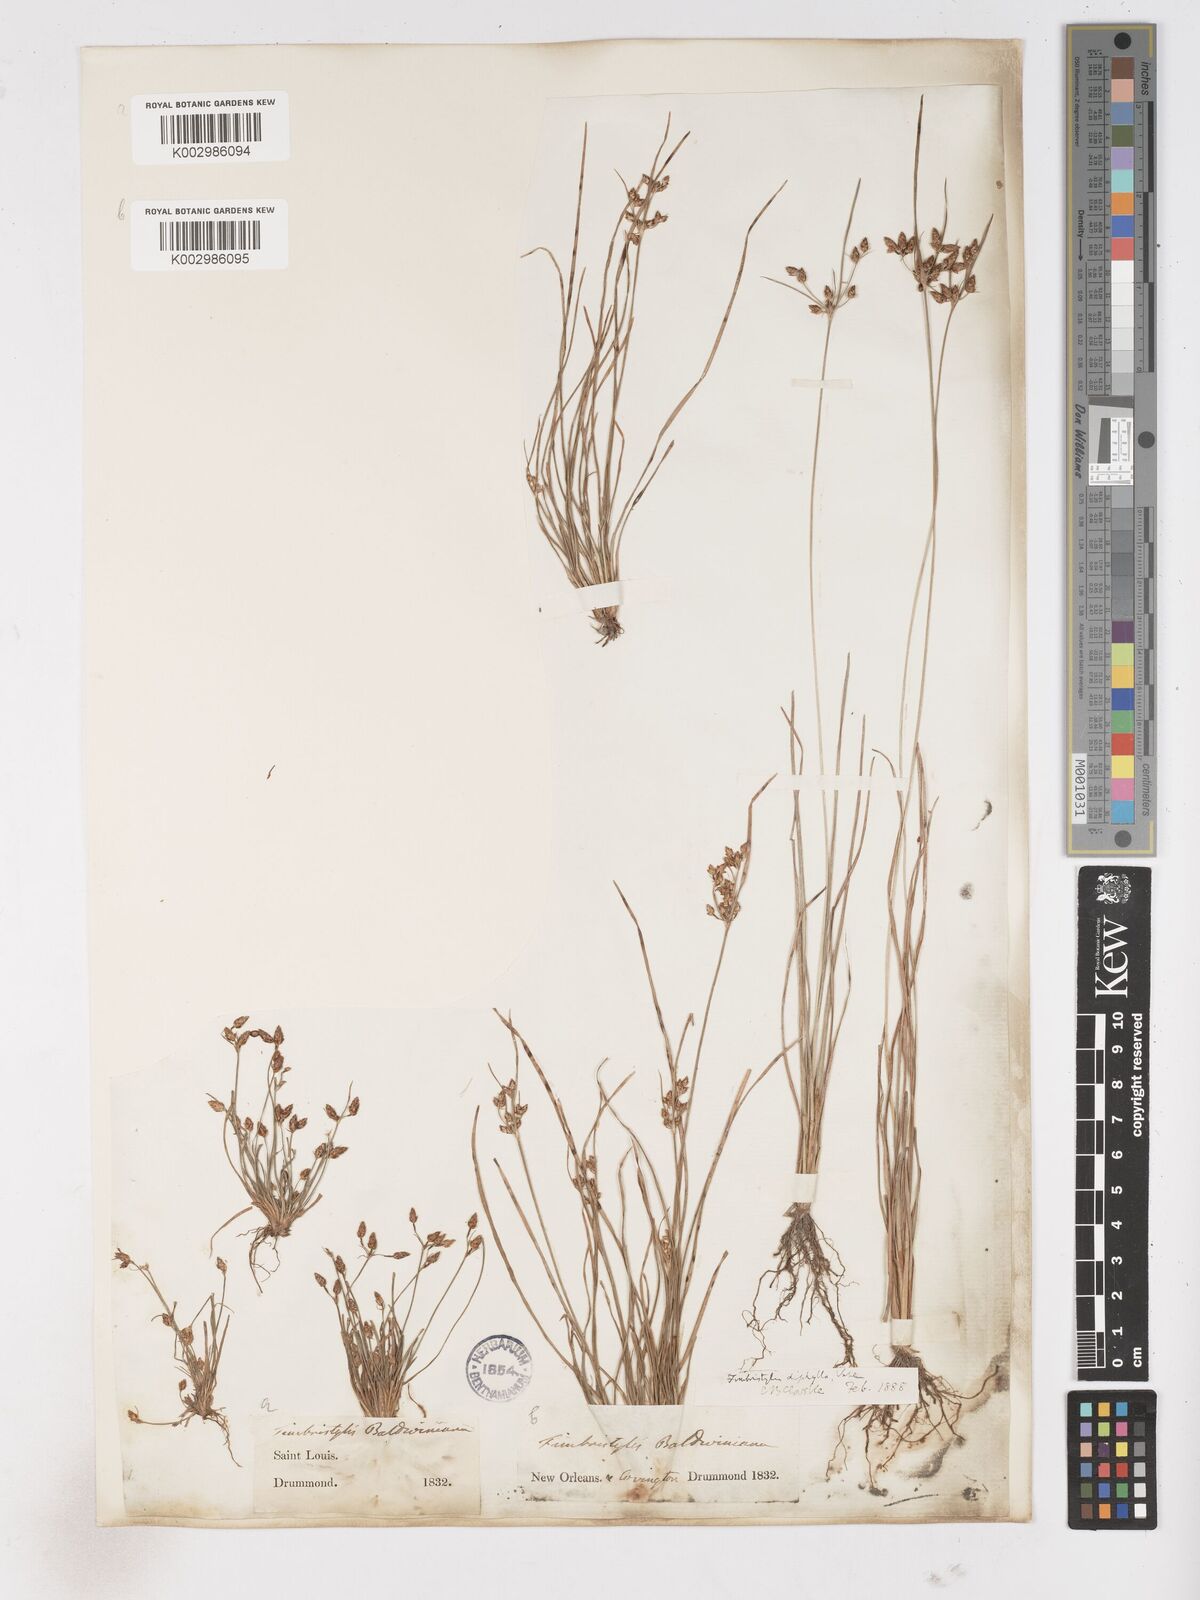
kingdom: Plantae
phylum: Tracheophyta
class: Liliopsida
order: Poales
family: Cyperaceae
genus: Fimbristylis
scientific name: Fimbristylis dichotoma
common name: Forked fimbry
